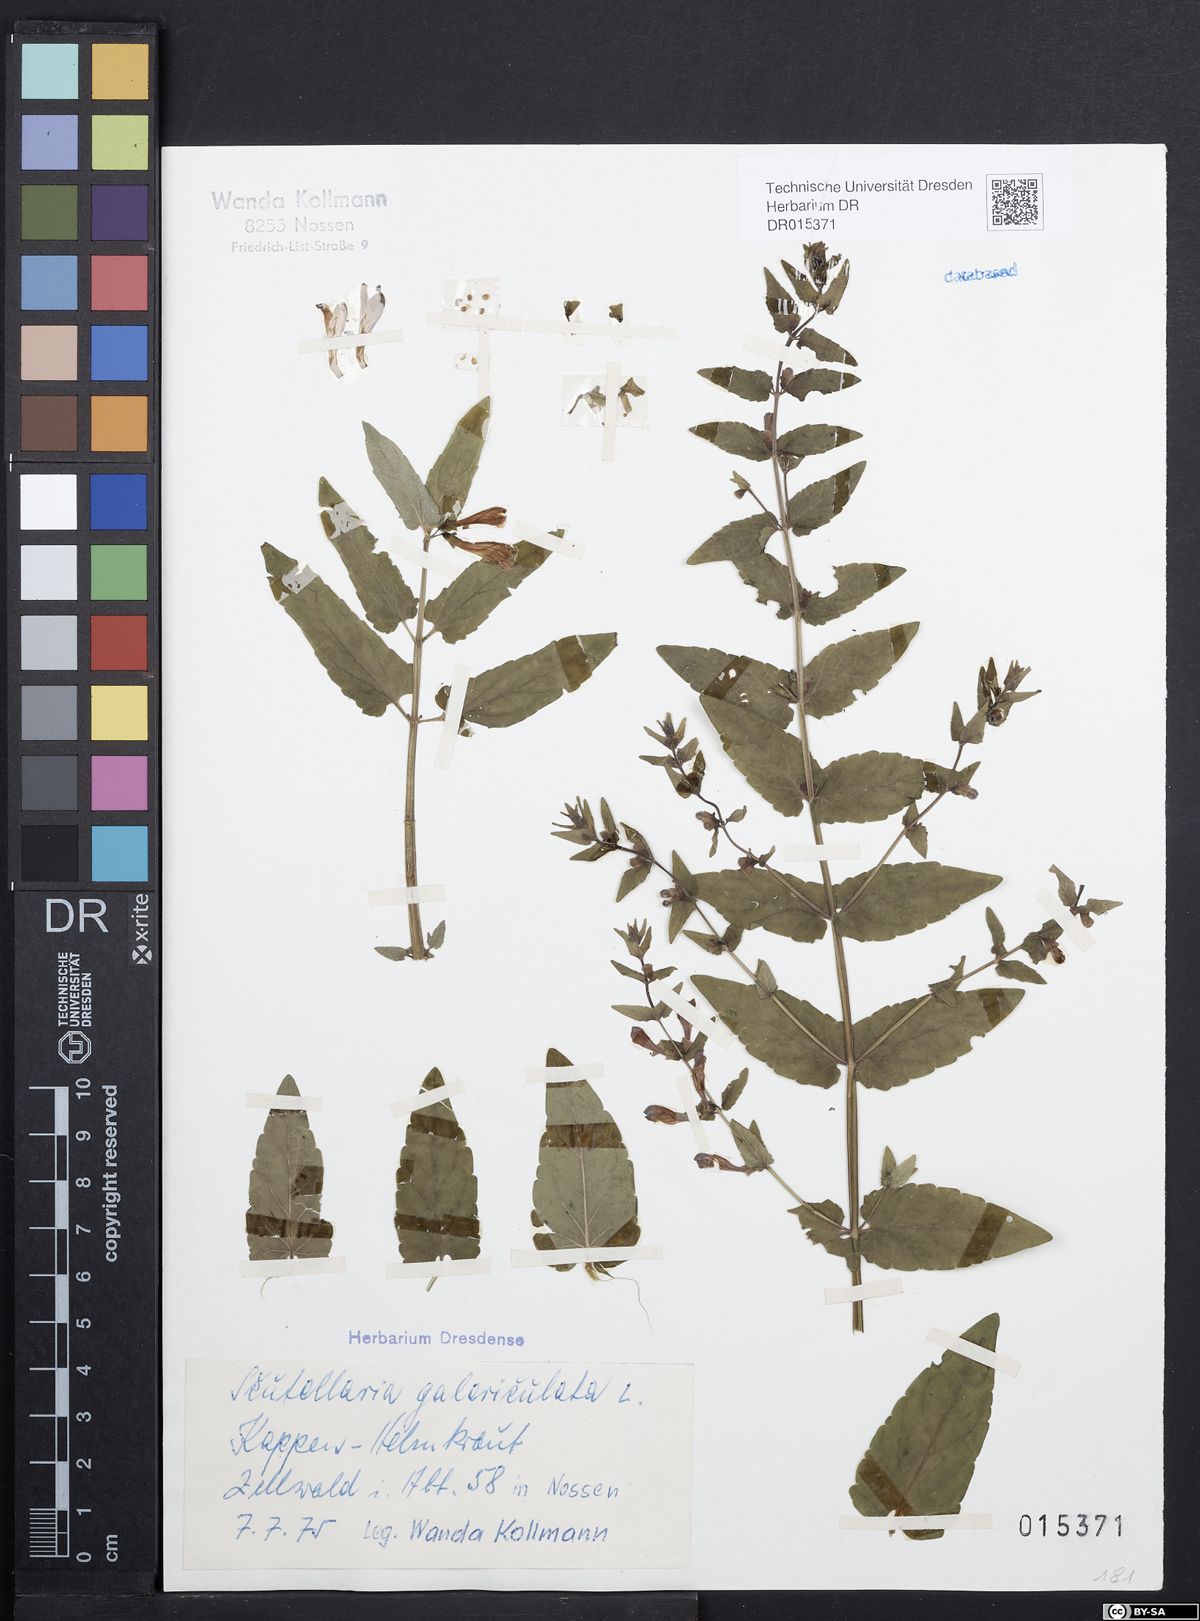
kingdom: Plantae
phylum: Tracheophyta
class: Magnoliopsida
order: Lamiales
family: Lamiaceae
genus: Scutellaria
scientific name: Scutellaria galericulata
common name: Skullcap
